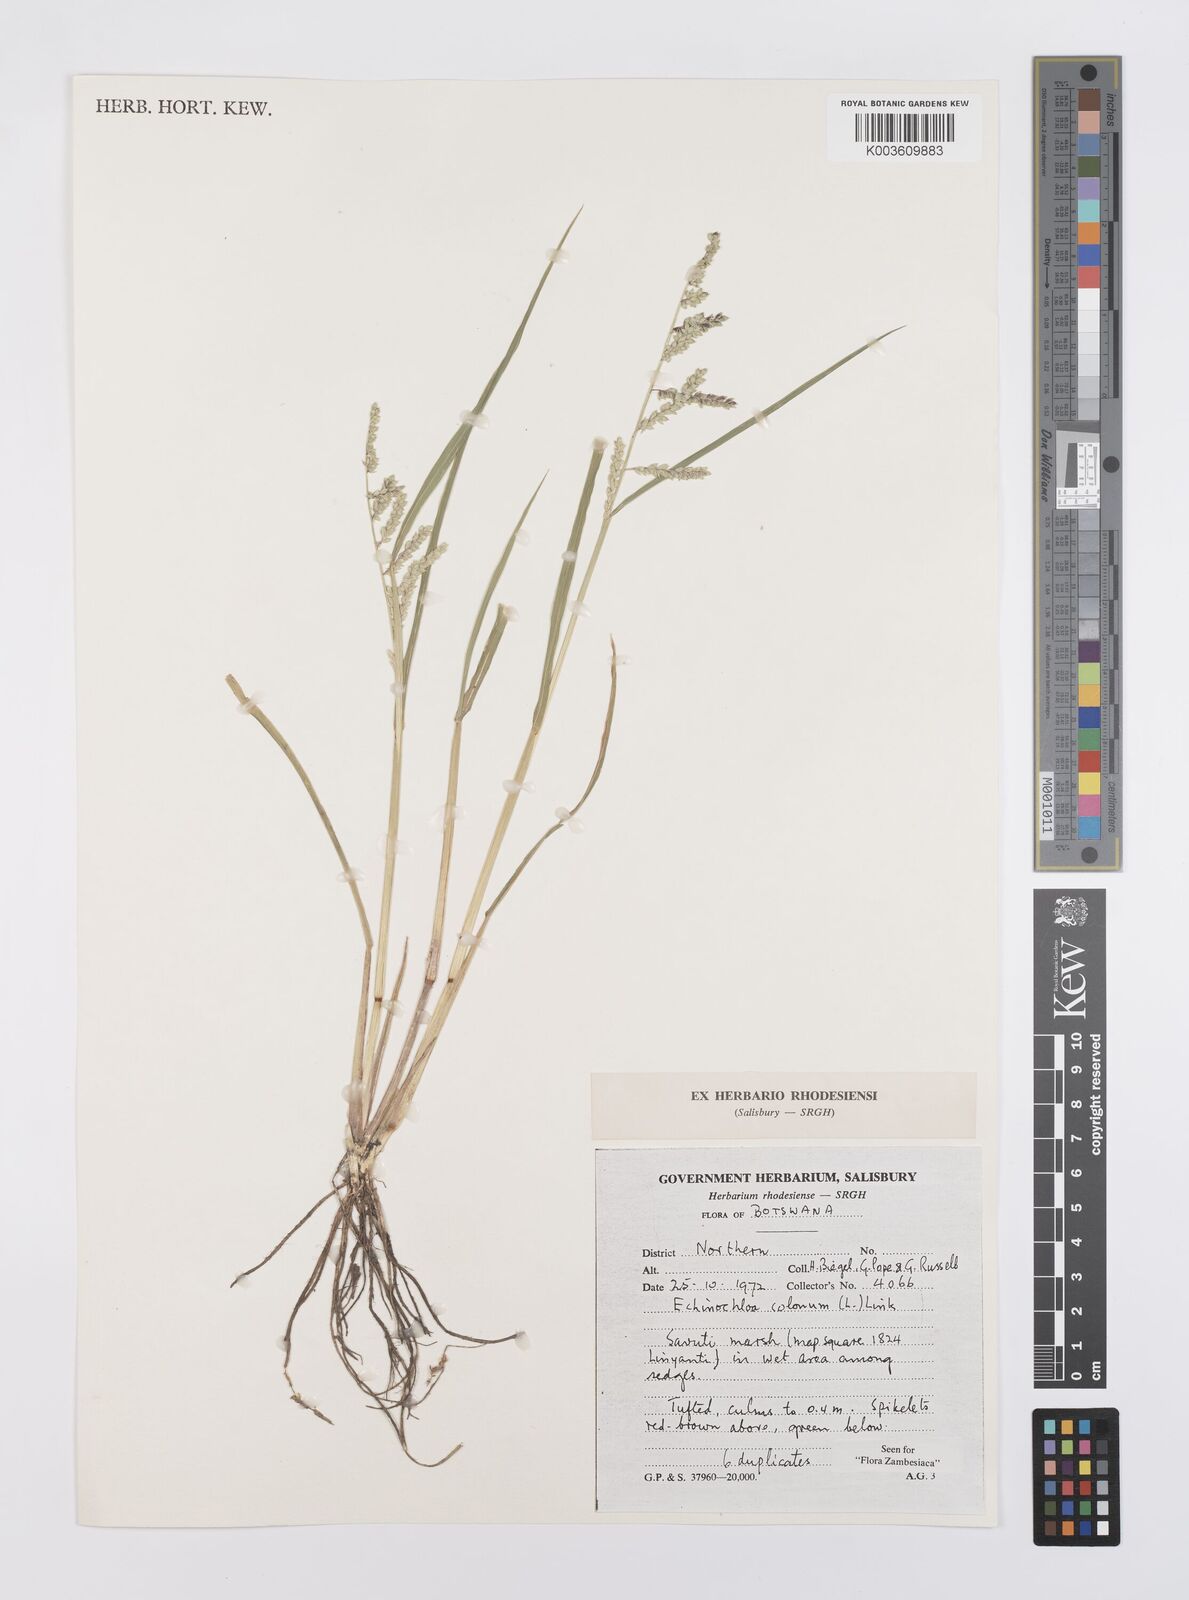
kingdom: Plantae
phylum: Tracheophyta
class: Liliopsida
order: Poales
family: Poaceae
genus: Echinochloa
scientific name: Echinochloa colonum
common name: Jungle rice
